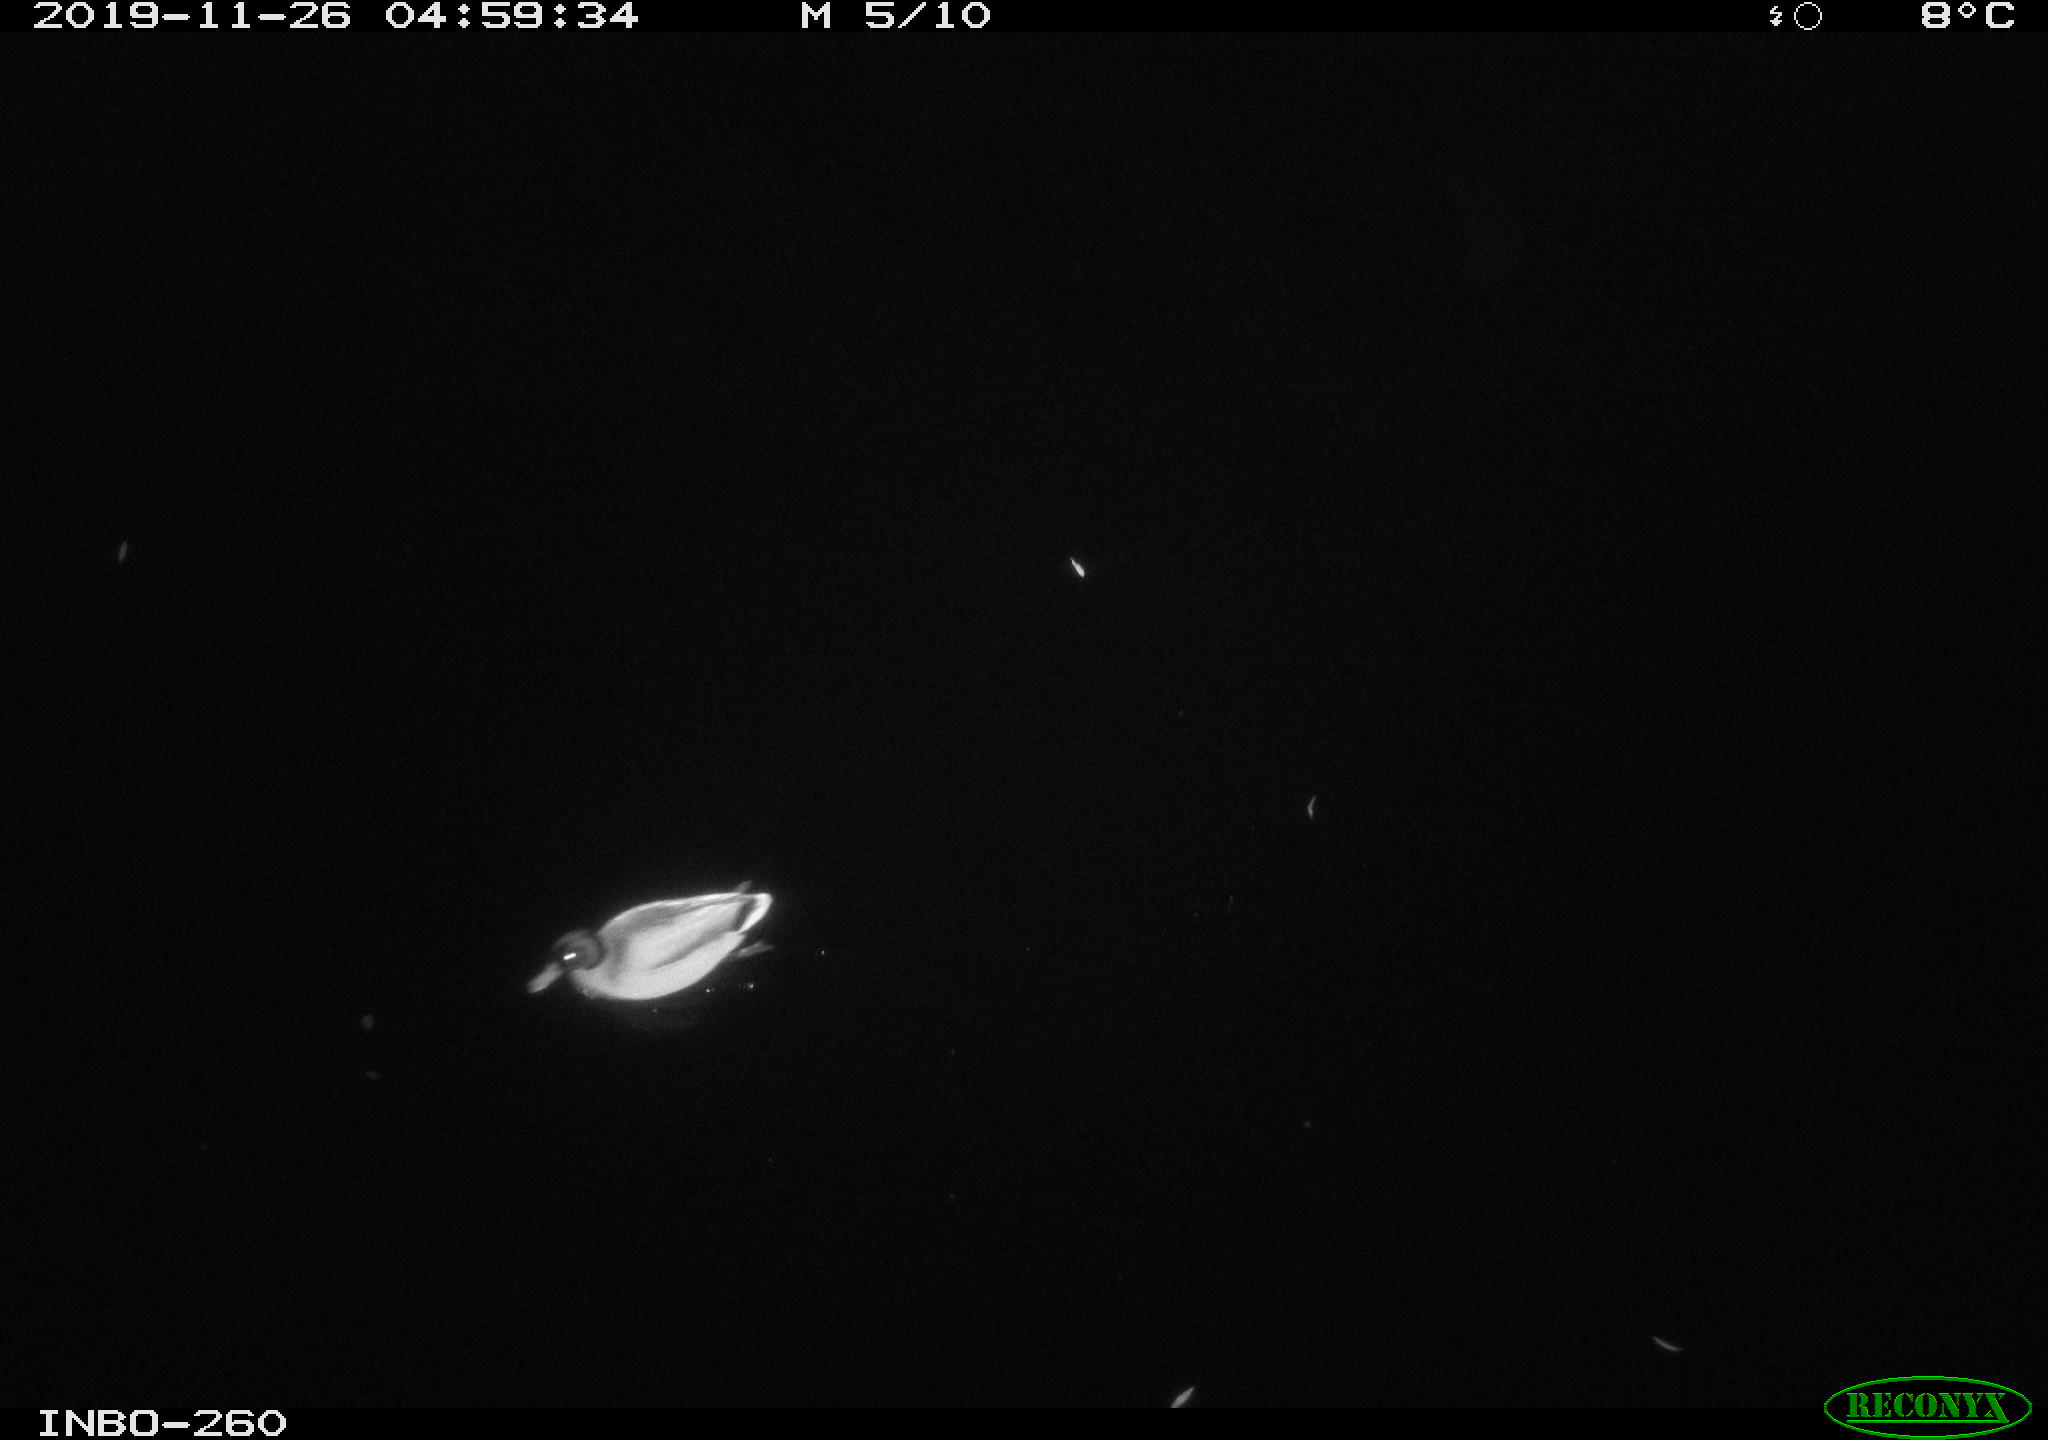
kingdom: Animalia
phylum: Chordata
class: Aves
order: Anseriformes
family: Anatidae
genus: Anas
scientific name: Anas platyrhynchos
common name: Mallard
